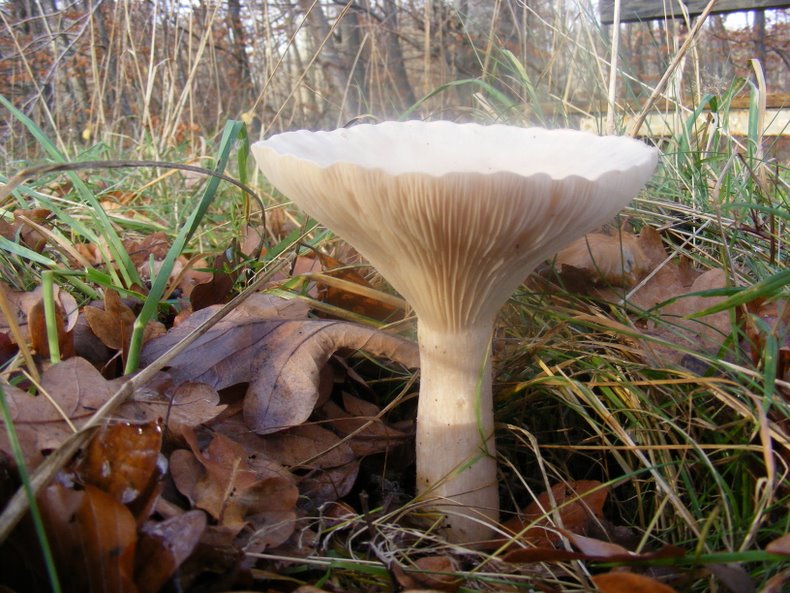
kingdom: Fungi
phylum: Basidiomycota
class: Agaricomycetes
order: Agaricales
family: Tricholomataceae
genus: Infundibulicybe
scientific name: Infundibulicybe geotropa
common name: stor tragthat
